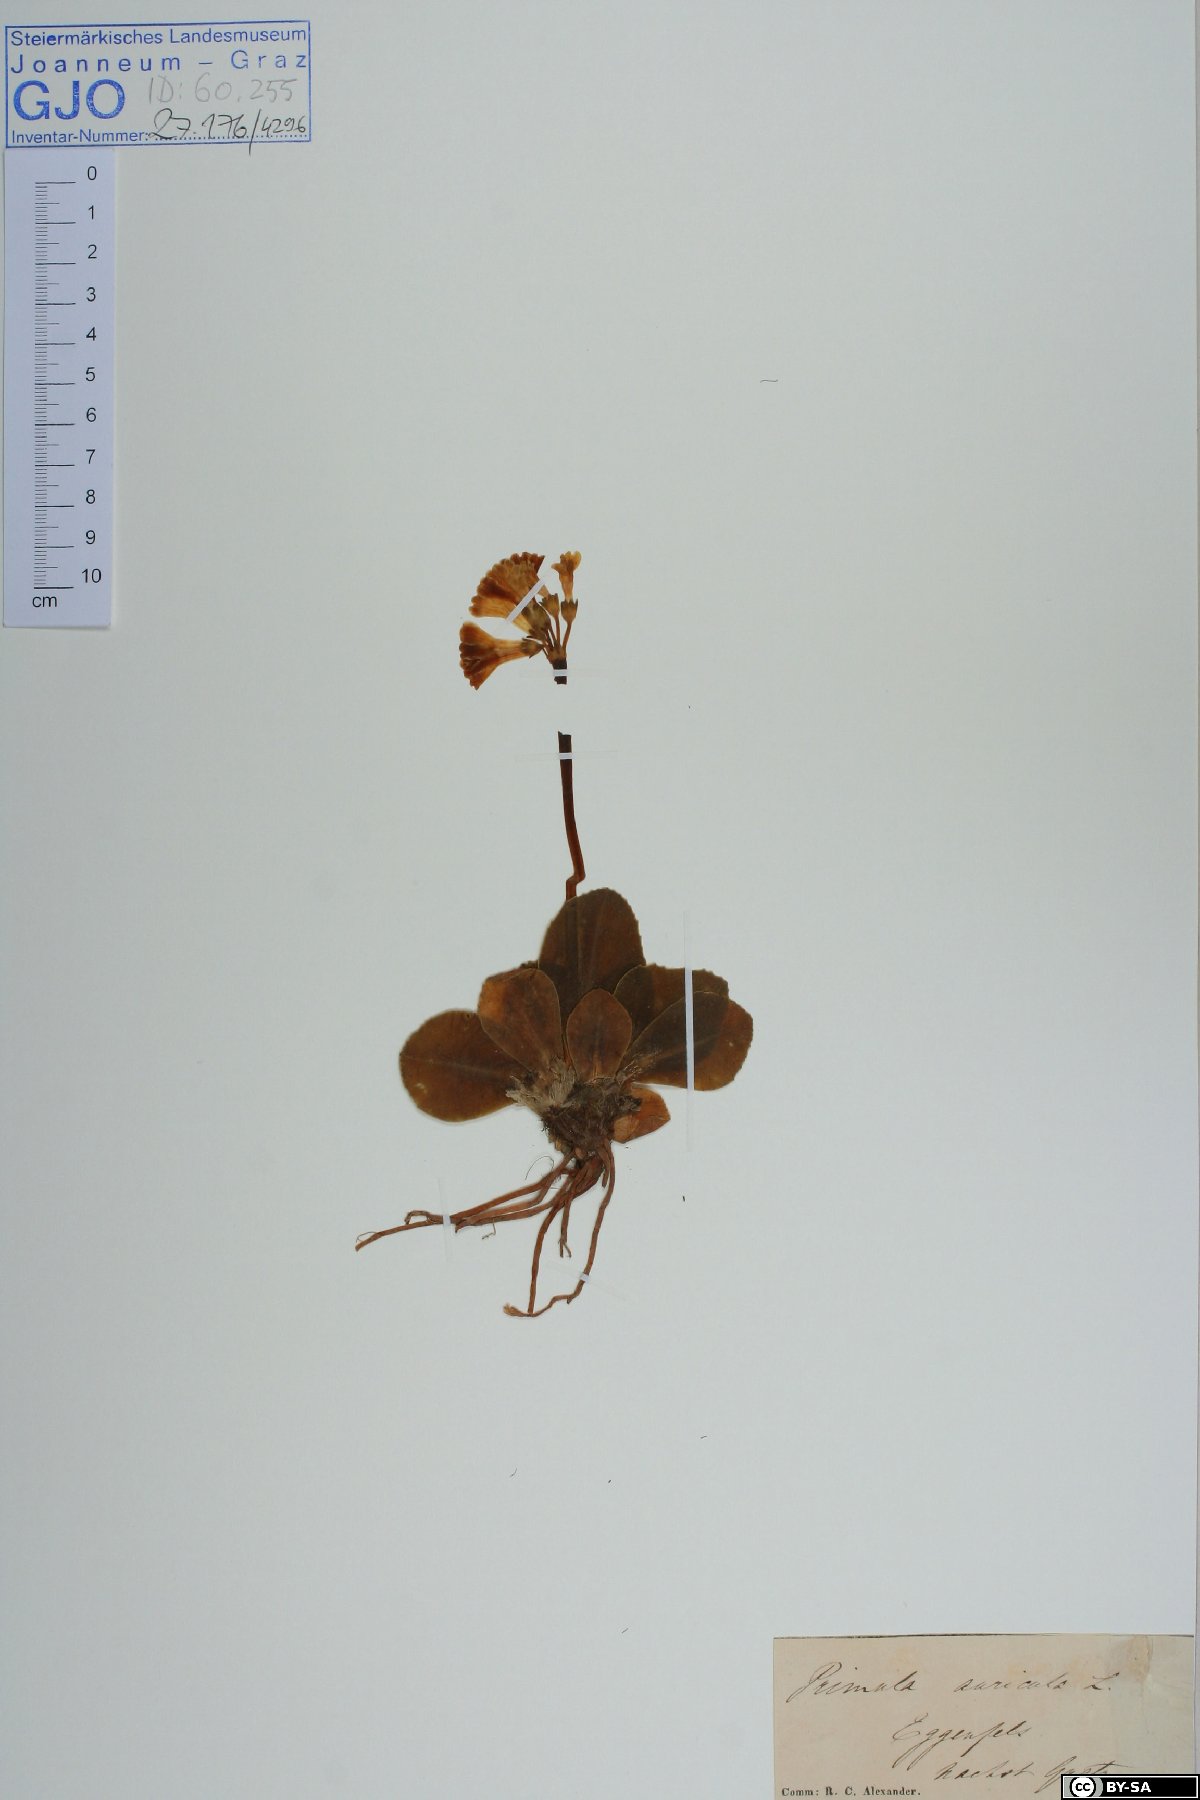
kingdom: Plantae
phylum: Tracheophyta
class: Magnoliopsida
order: Ericales
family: Primulaceae
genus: Primula
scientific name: Primula auricula
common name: Auricula
